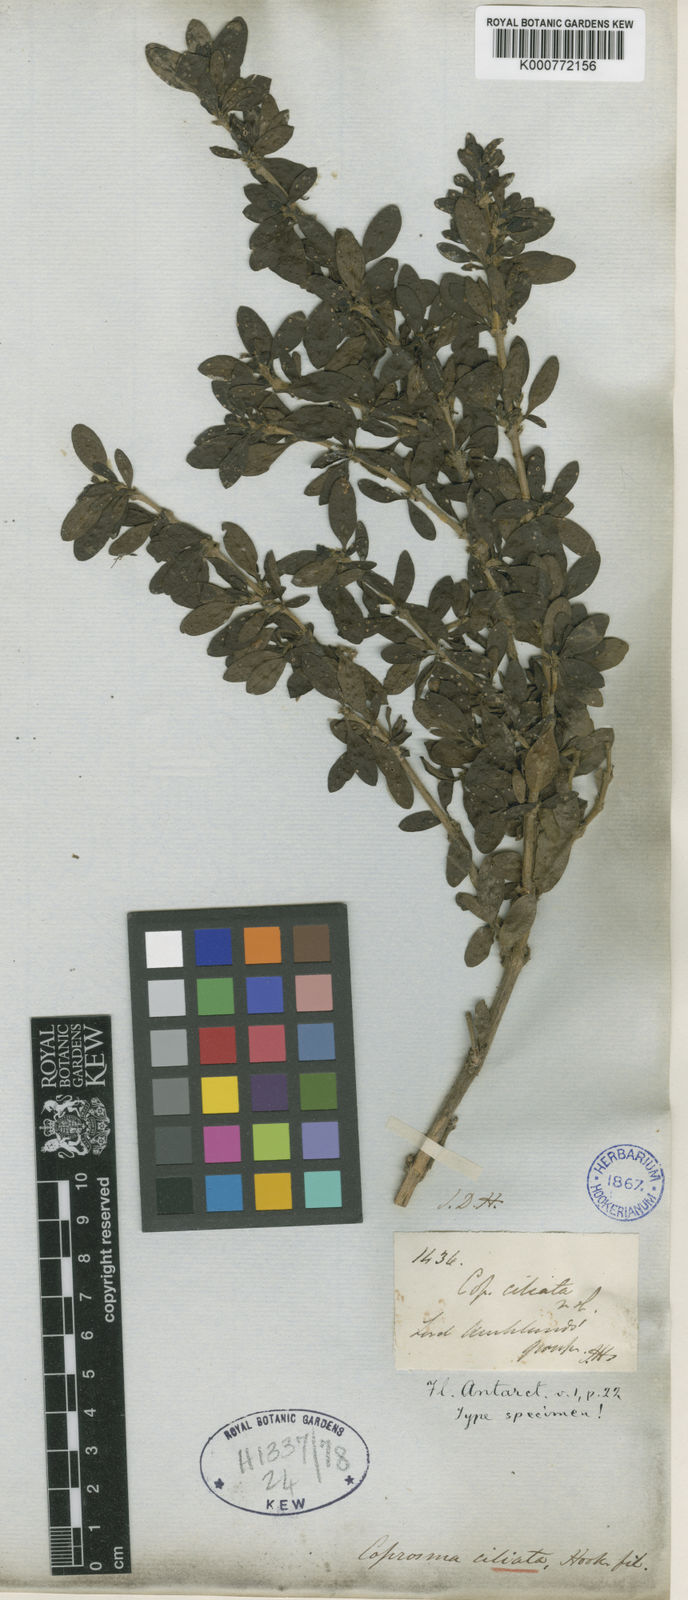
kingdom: Plantae
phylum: Tracheophyta
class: Magnoliopsida
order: Gentianales
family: Rubiaceae
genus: Coprosma
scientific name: Coprosma ciliata
